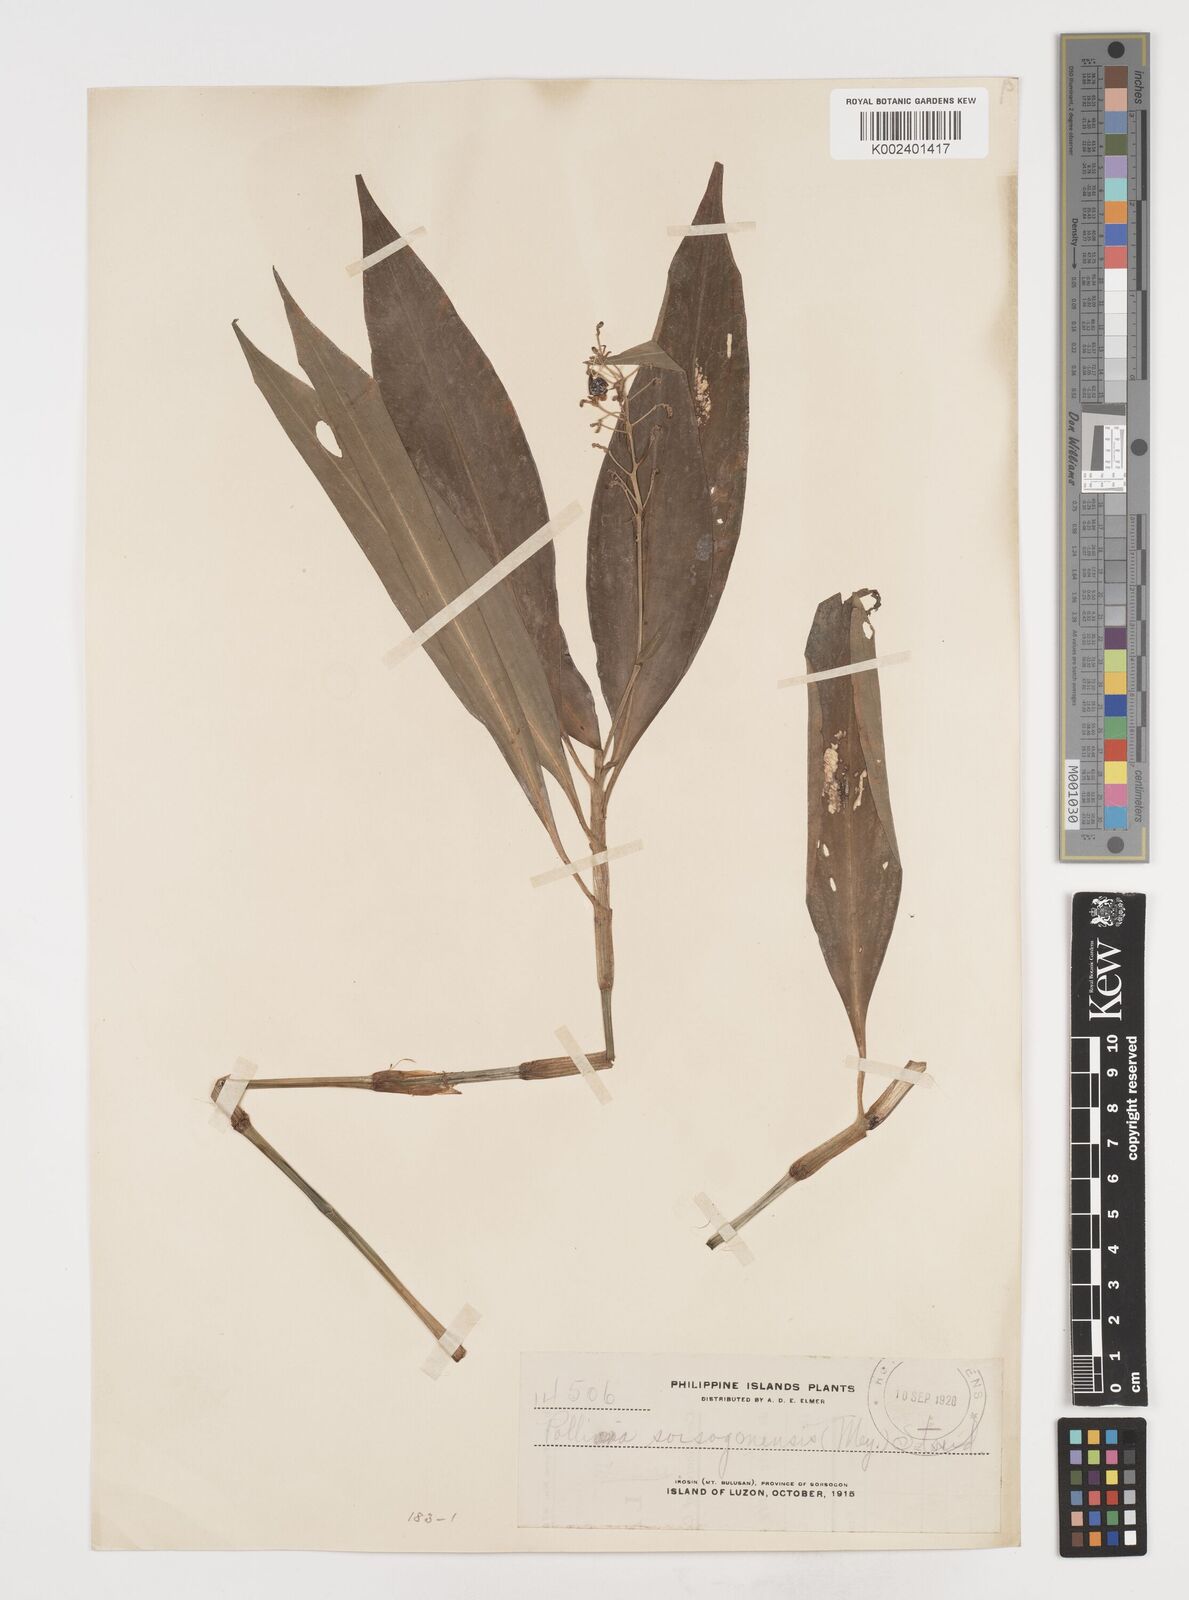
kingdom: Plantae
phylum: Tracheophyta
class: Liliopsida
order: Commelinales
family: Commelinaceae
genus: Pollia
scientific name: Pollia secundiflora
